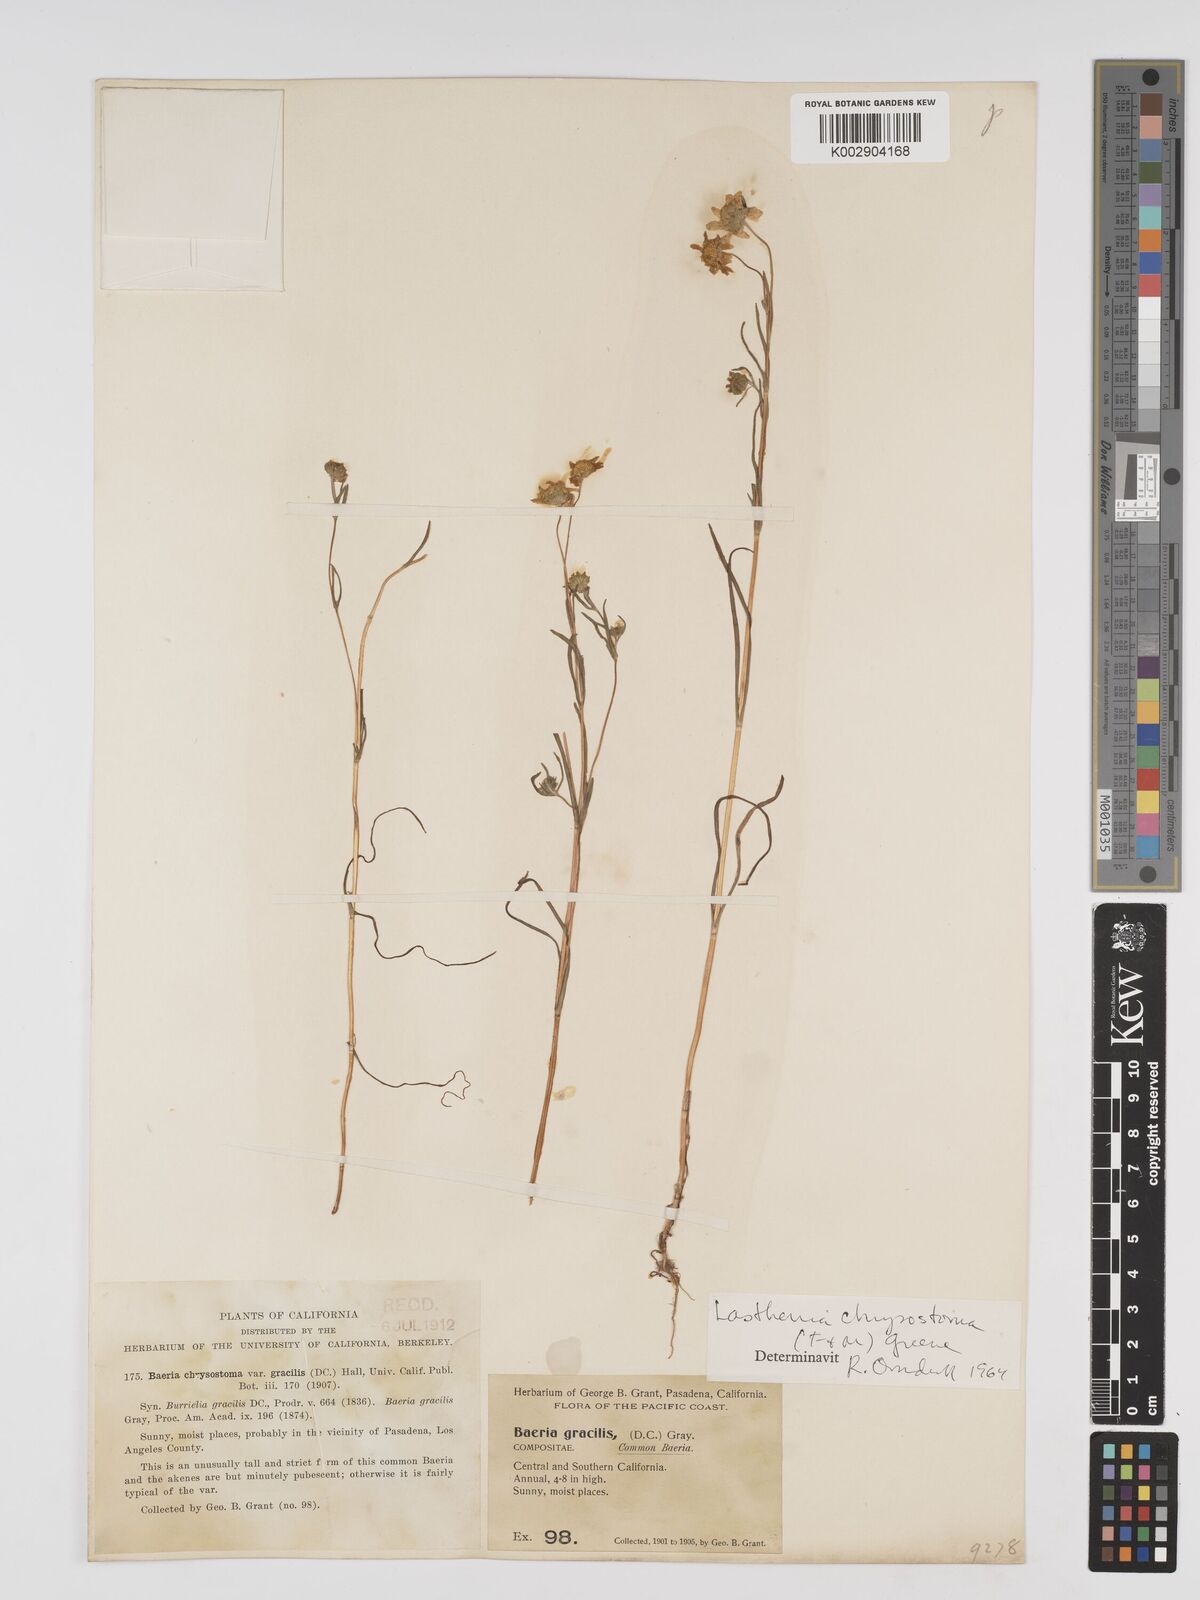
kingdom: Plantae
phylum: Tracheophyta
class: Magnoliopsida
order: Asterales
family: Asteraceae
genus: Lasthenia
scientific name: Lasthenia californica
